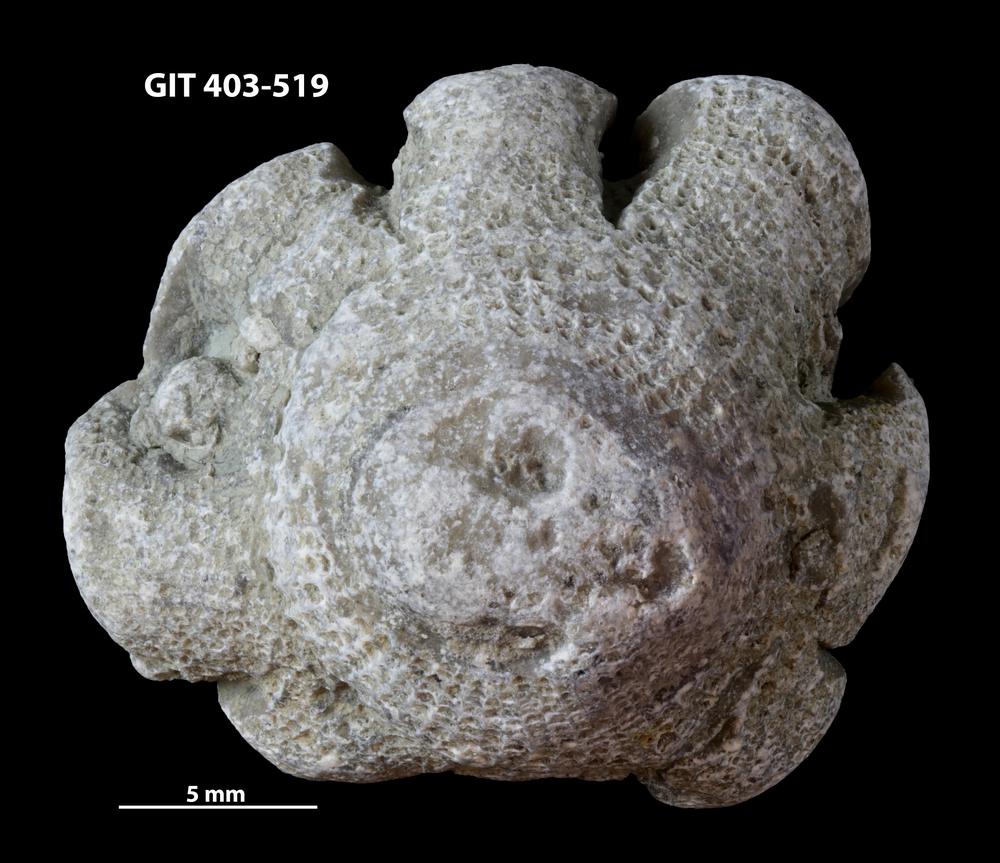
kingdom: Animalia
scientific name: Animalia
